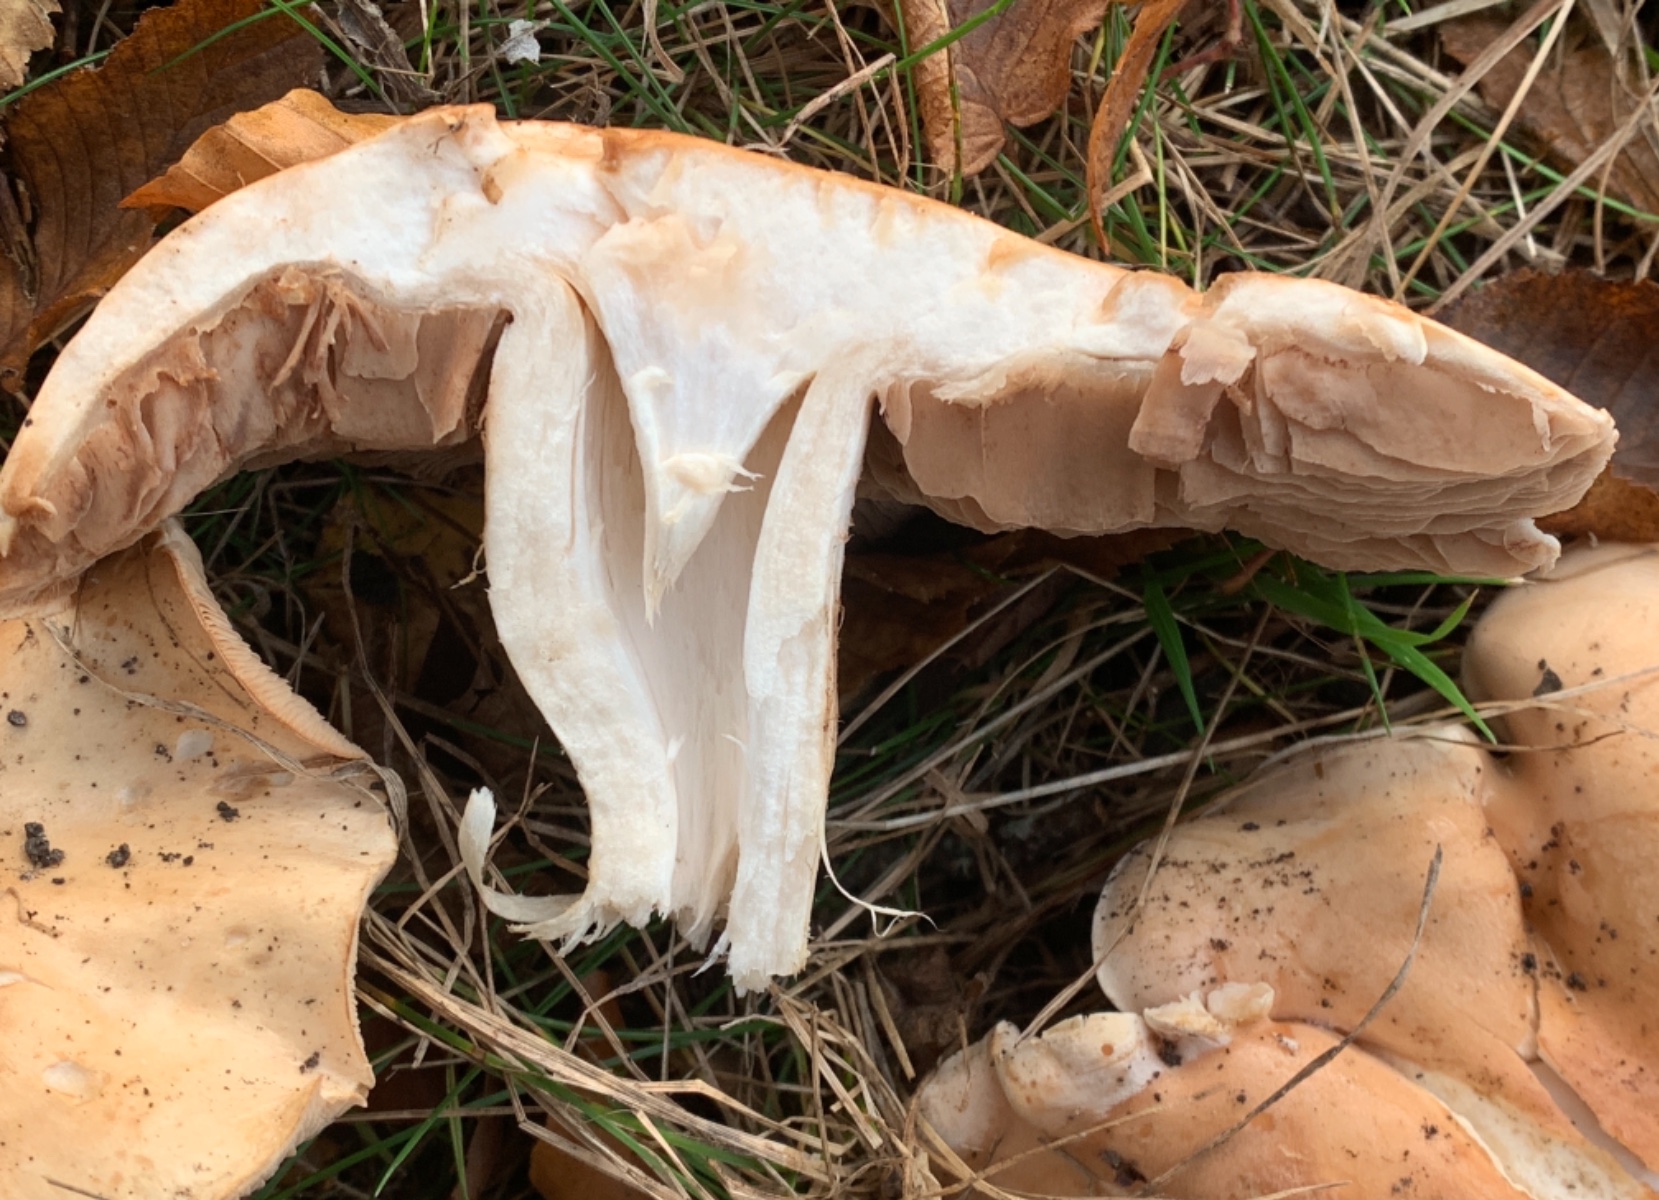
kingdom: Fungi
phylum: Basidiomycota
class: Agaricomycetes
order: Agaricales
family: Hymenogastraceae
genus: Hebeloma
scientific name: Hebeloma sinapizans
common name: ræddike-tåreblad
